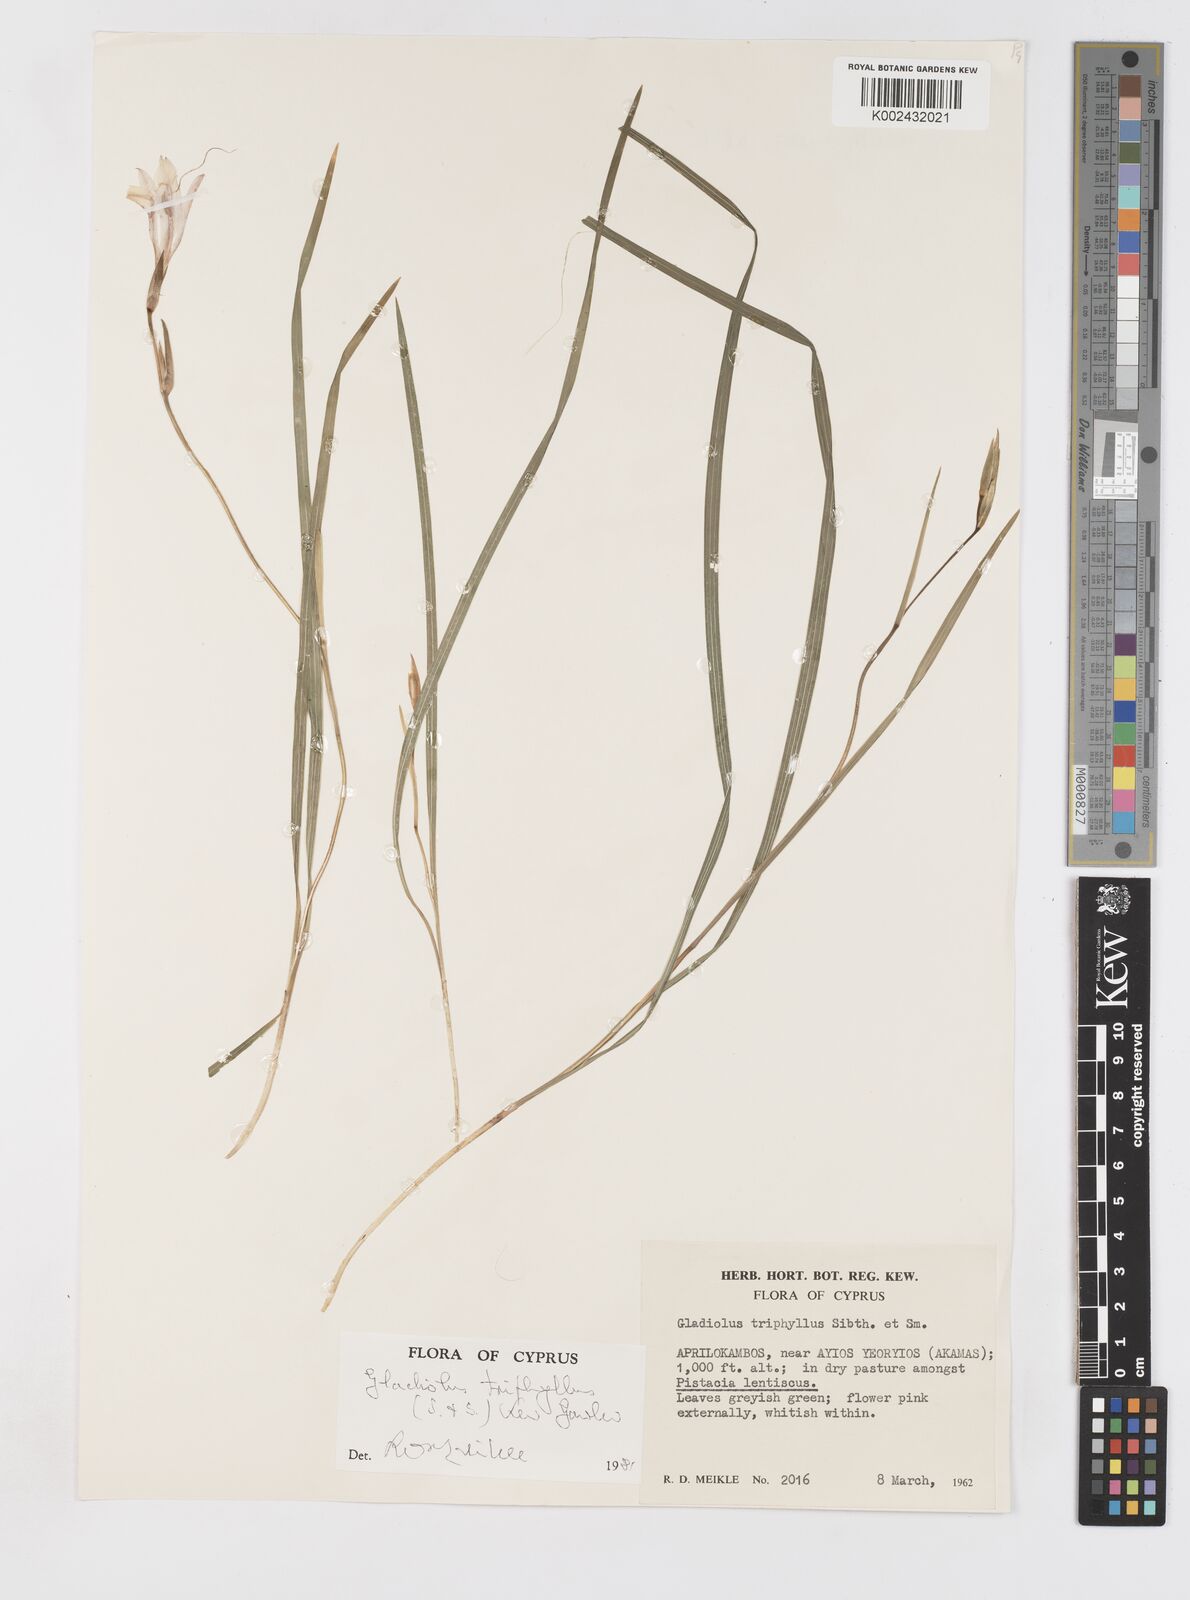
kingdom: Plantae
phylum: Tracheophyta
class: Liliopsida
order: Asparagales
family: Iridaceae
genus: Gladiolus
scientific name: Gladiolus triphyllus
